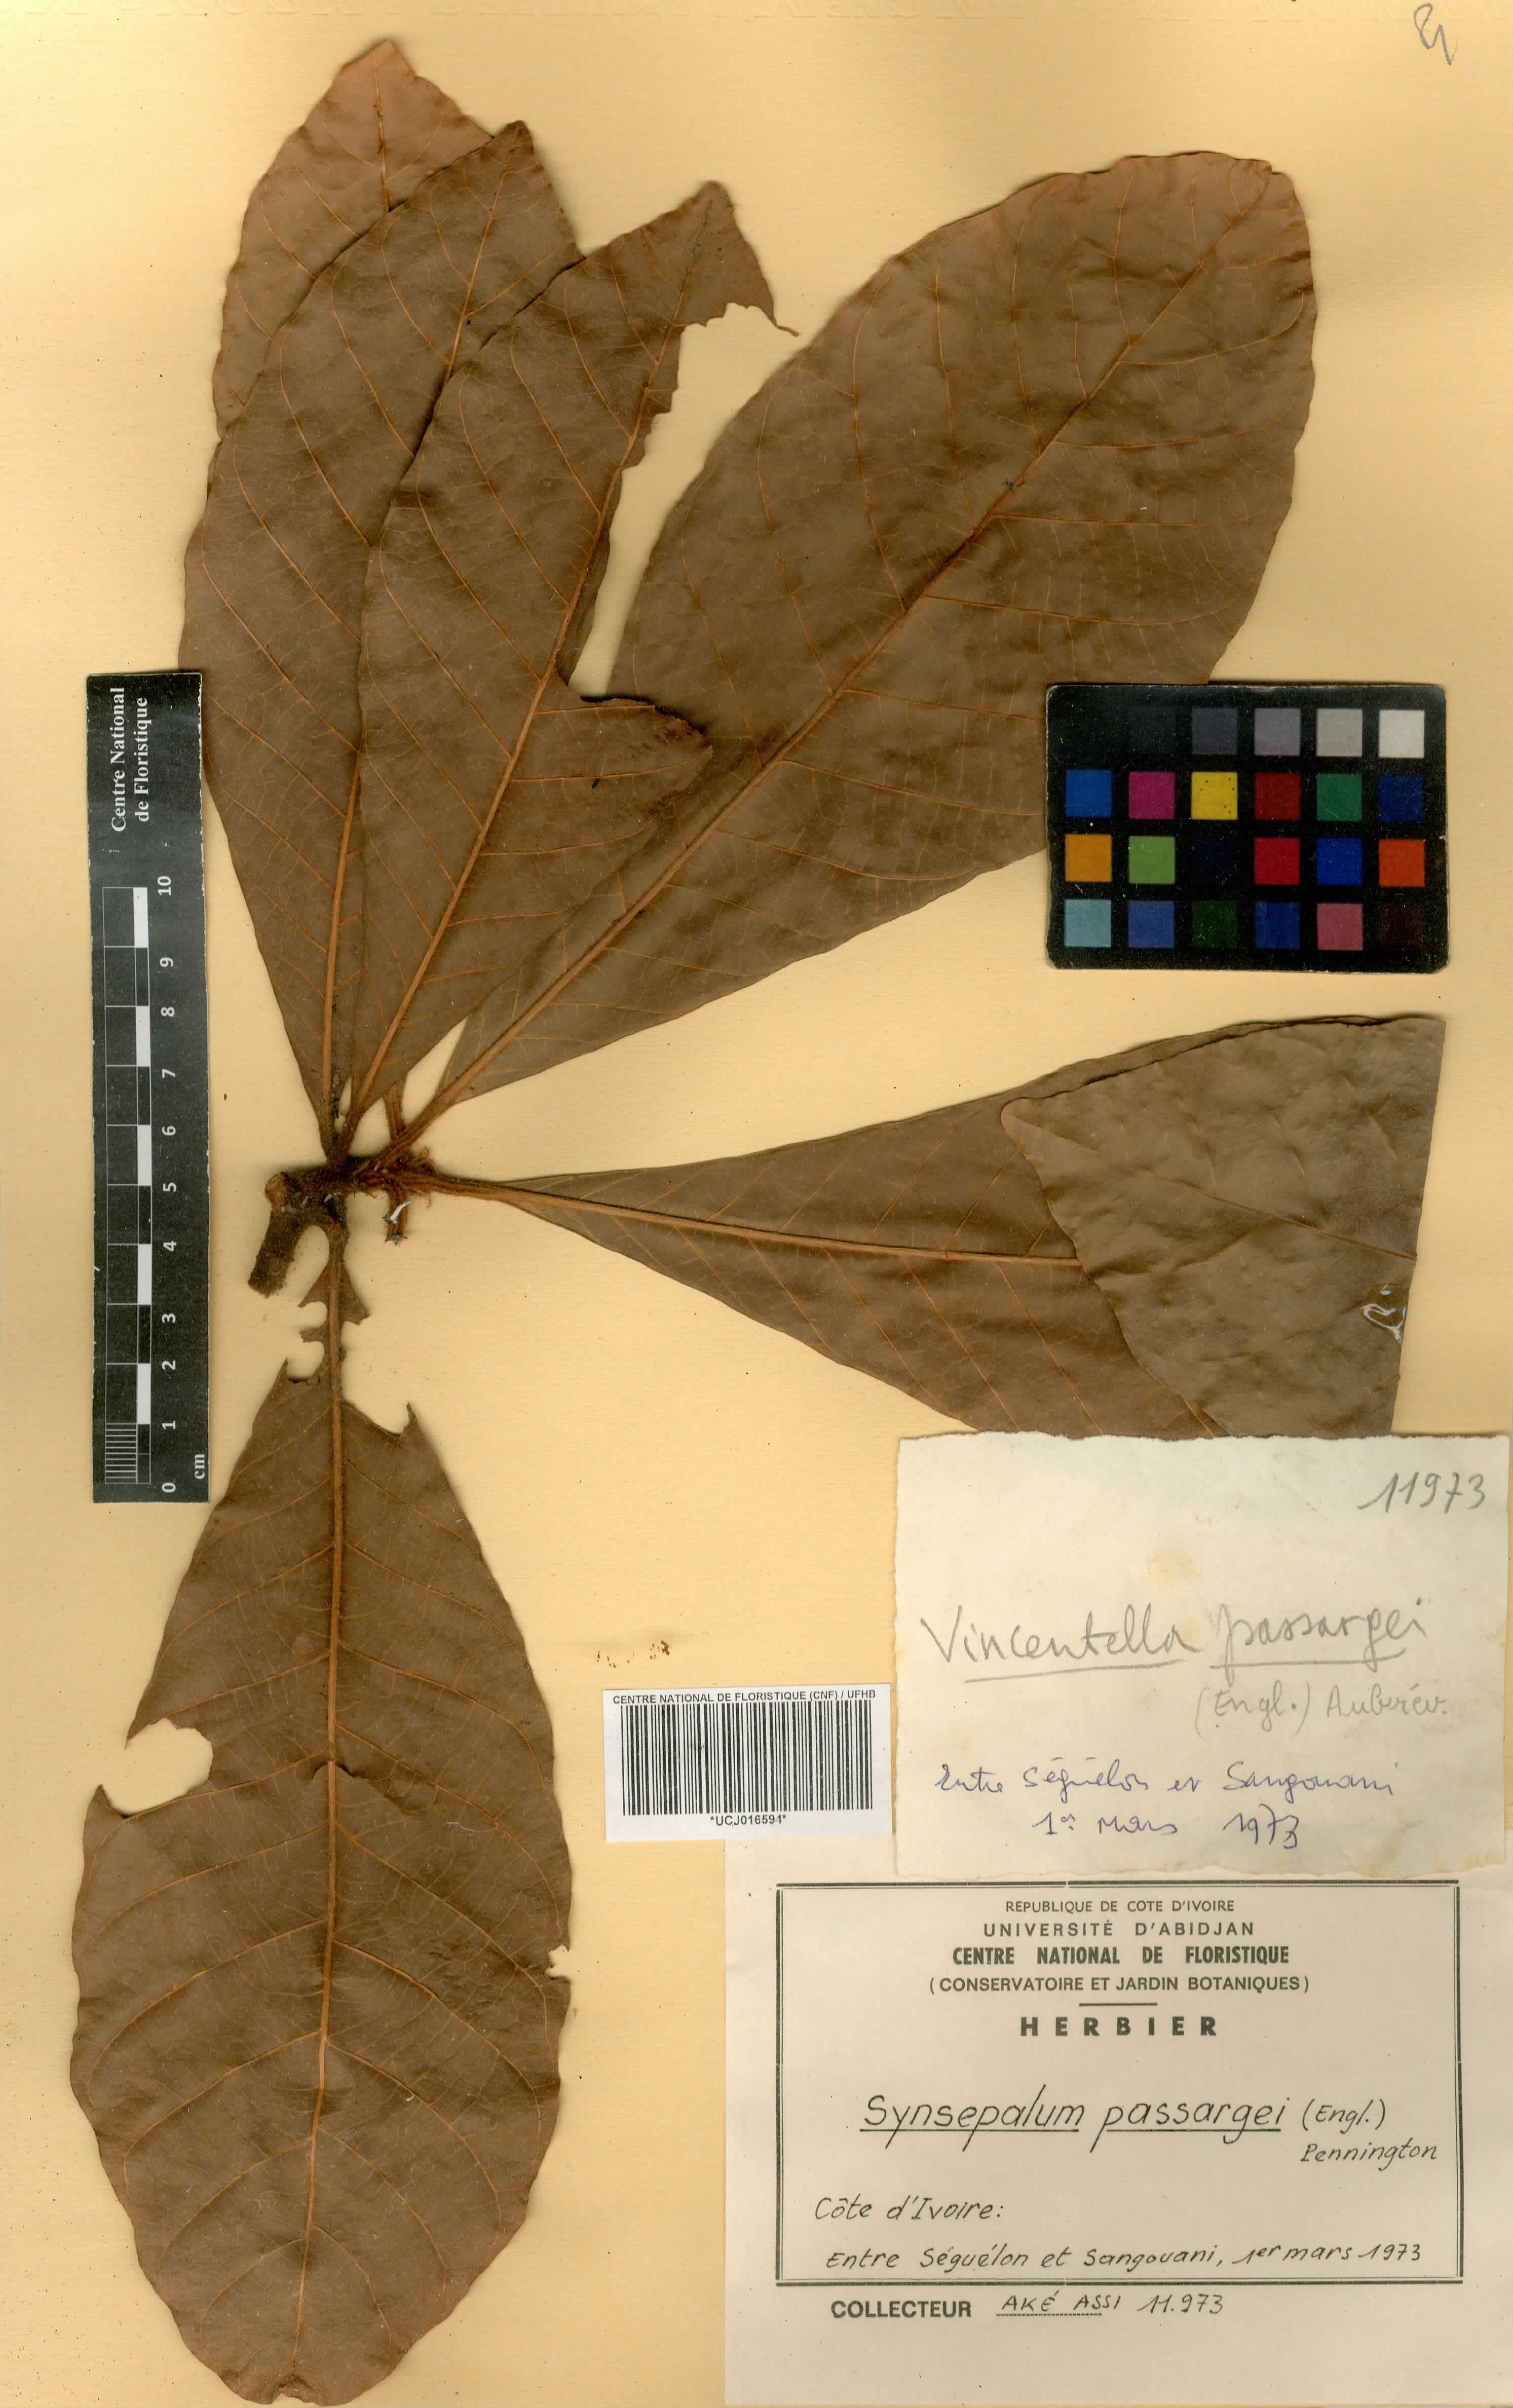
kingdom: Plantae
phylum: Tracheophyta
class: Magnoliopsida
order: Ericales
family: Sapotaceae
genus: Synsepalum
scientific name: Synsepalum passargei
